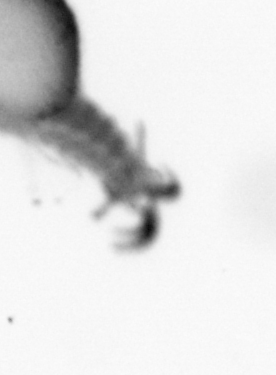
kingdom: Animalia
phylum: Annelida
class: Polychaeta
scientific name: Polychaeta
